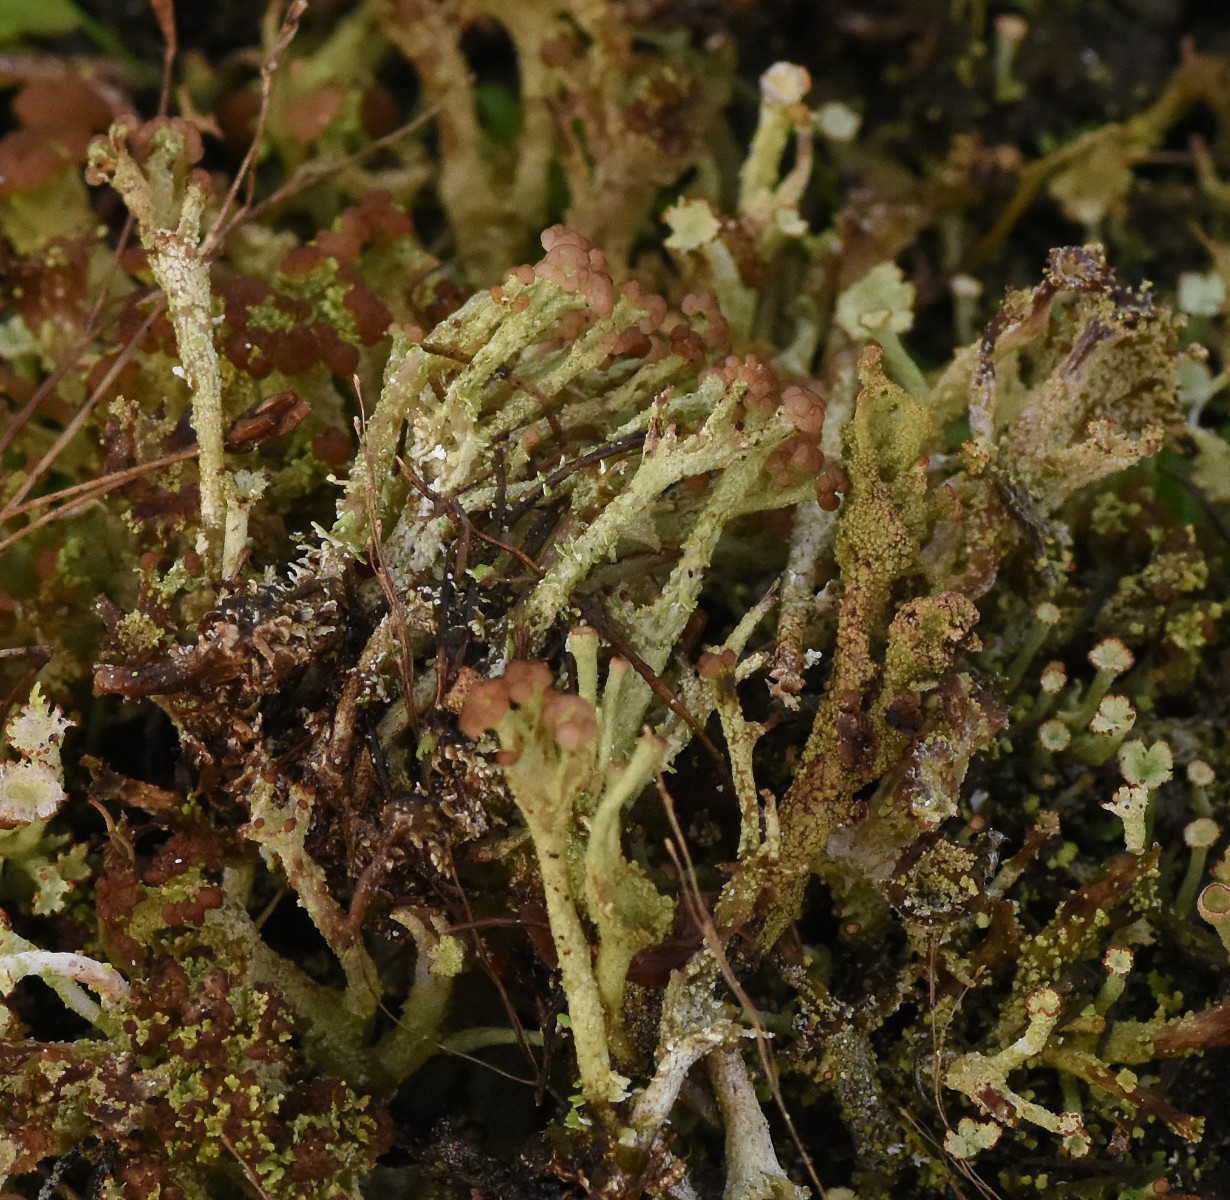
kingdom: Fungi
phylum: Ascomycota
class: Lecanoromycetes
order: Lecanorales
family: Cladoniaceae
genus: Cladonia
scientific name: Cladonia ramulosa
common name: kliddet bægerlav
